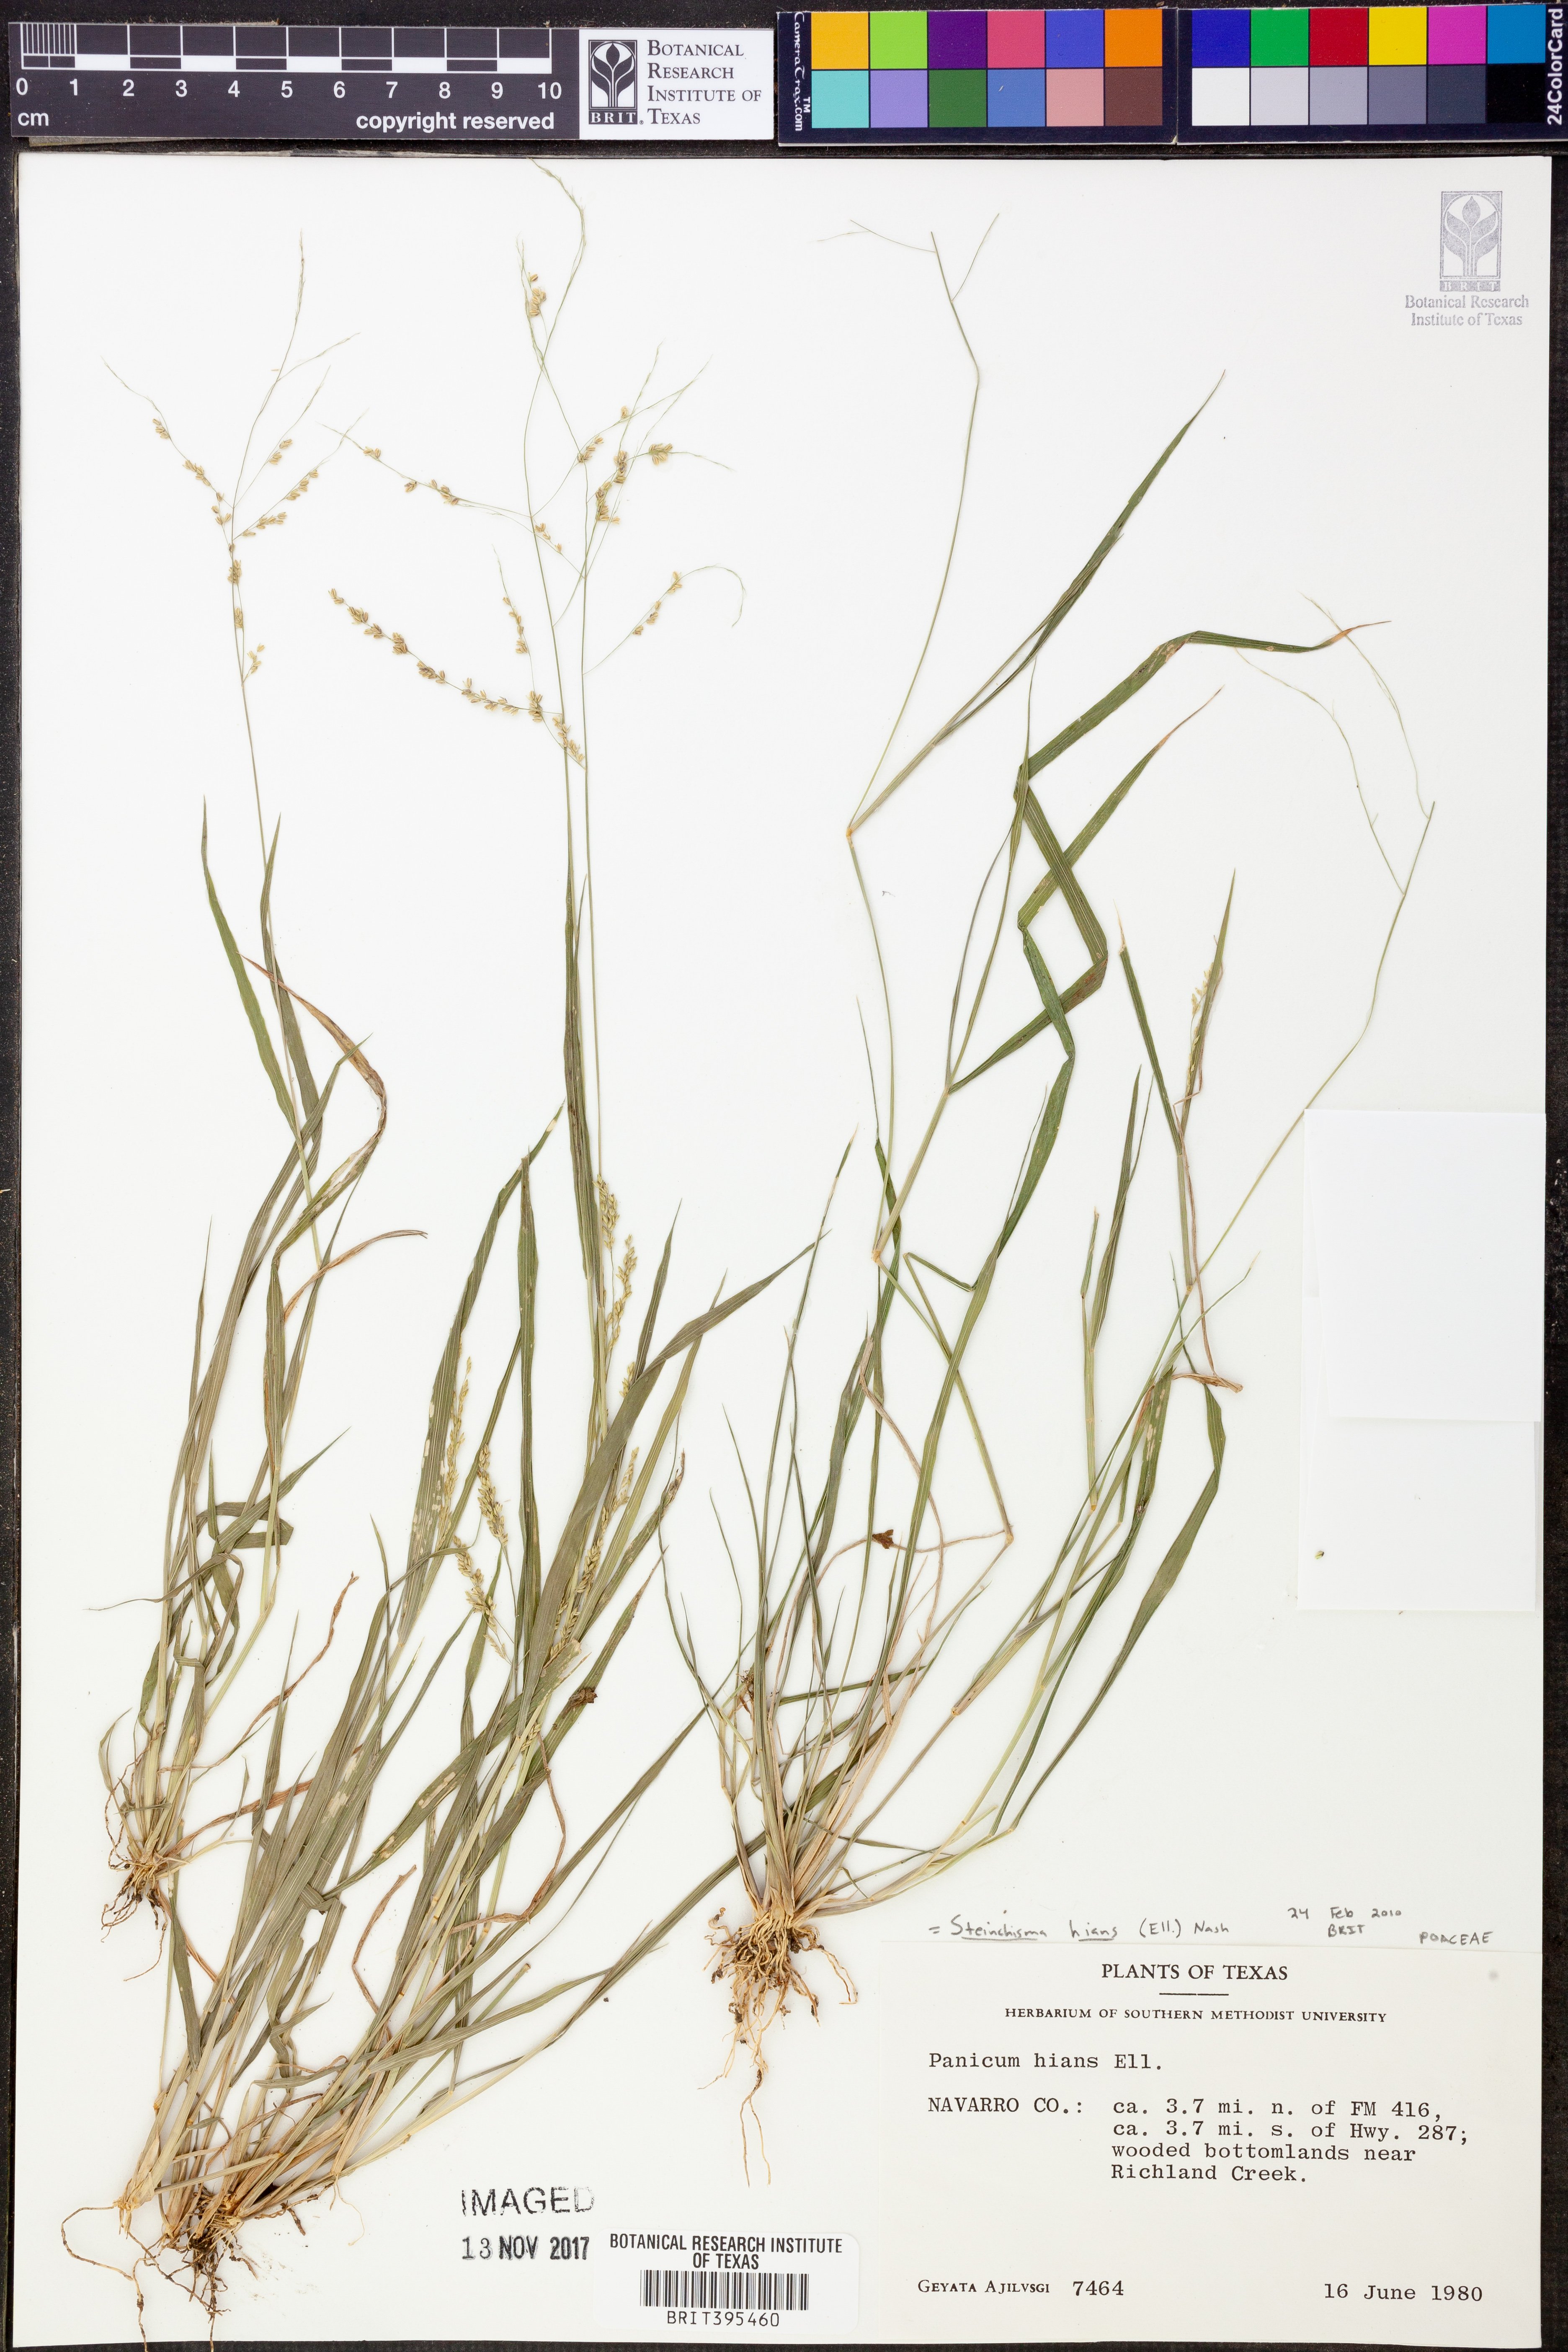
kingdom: Plantae
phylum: Tracheophyta
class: Liliopsida
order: Poales
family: Poaceae
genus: Steinchisma
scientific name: Steinchisma hians
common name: Gaping panic grass
